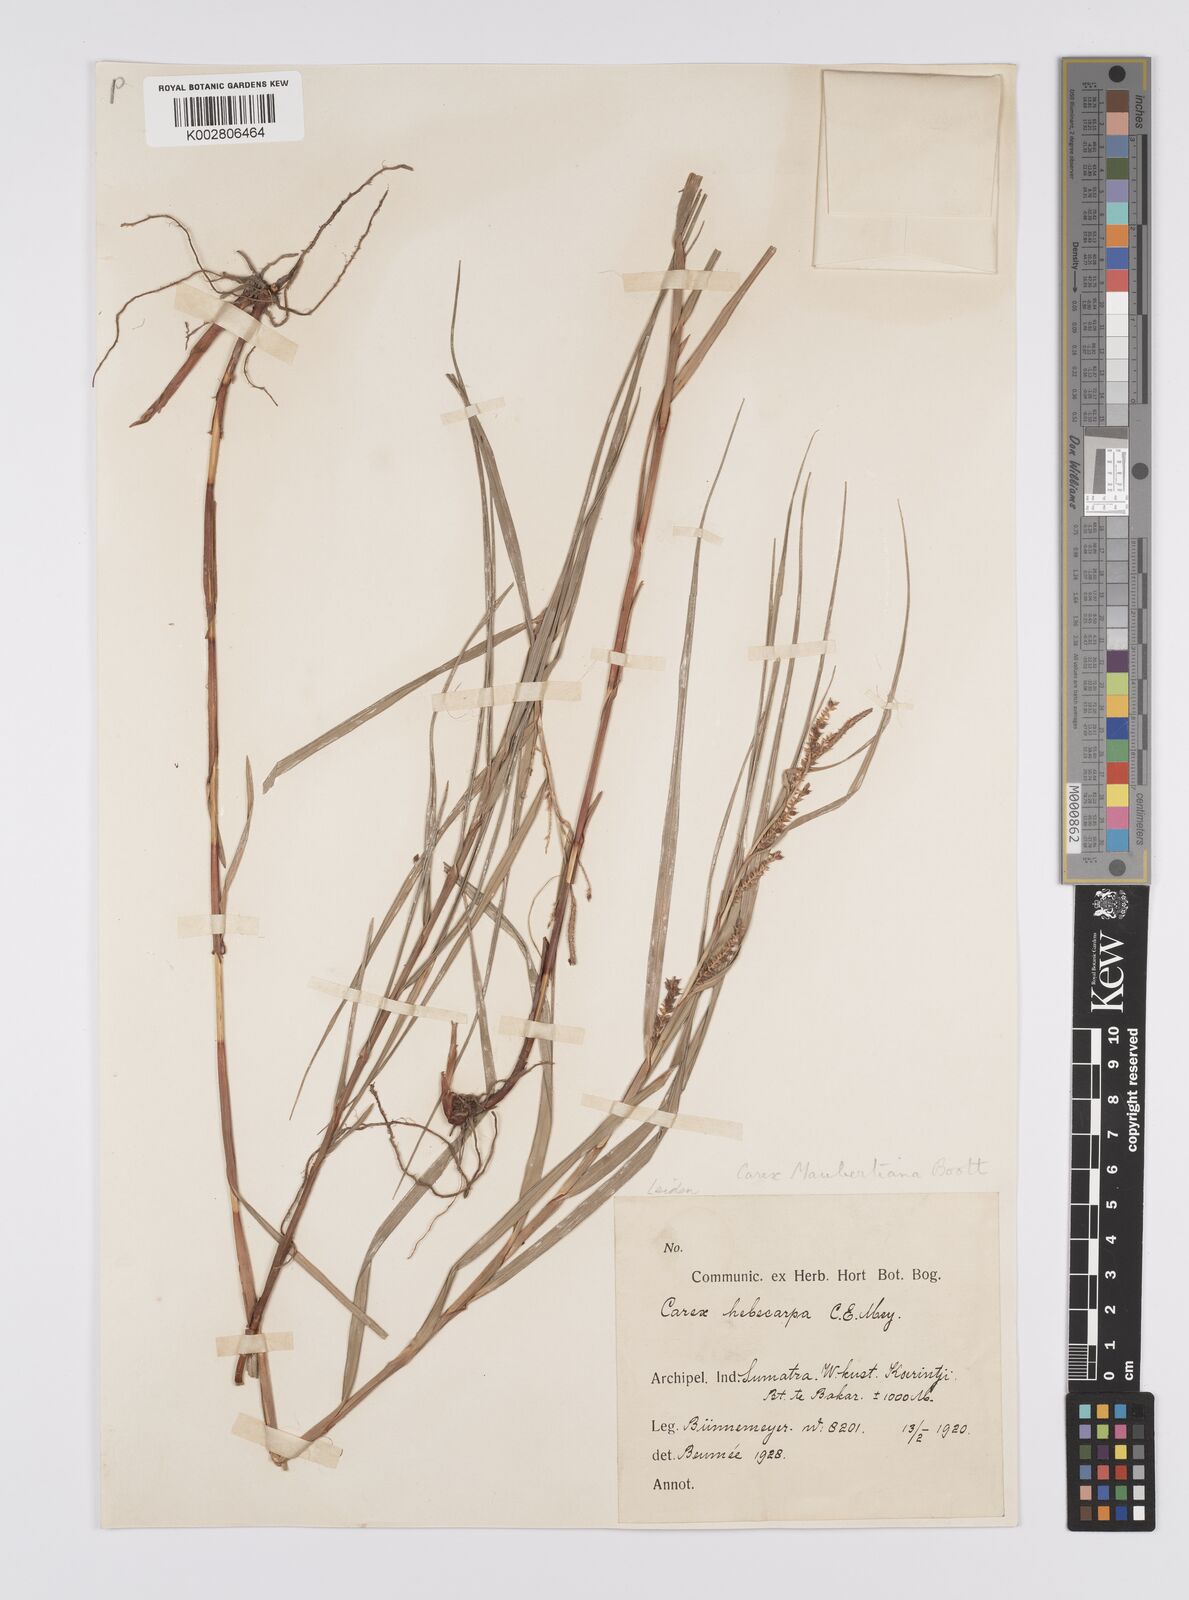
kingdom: Plantae
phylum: Tracheophyta
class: Liliopsida
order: Poales
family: Cyperaceae
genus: Carex
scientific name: Carex maubertiana
